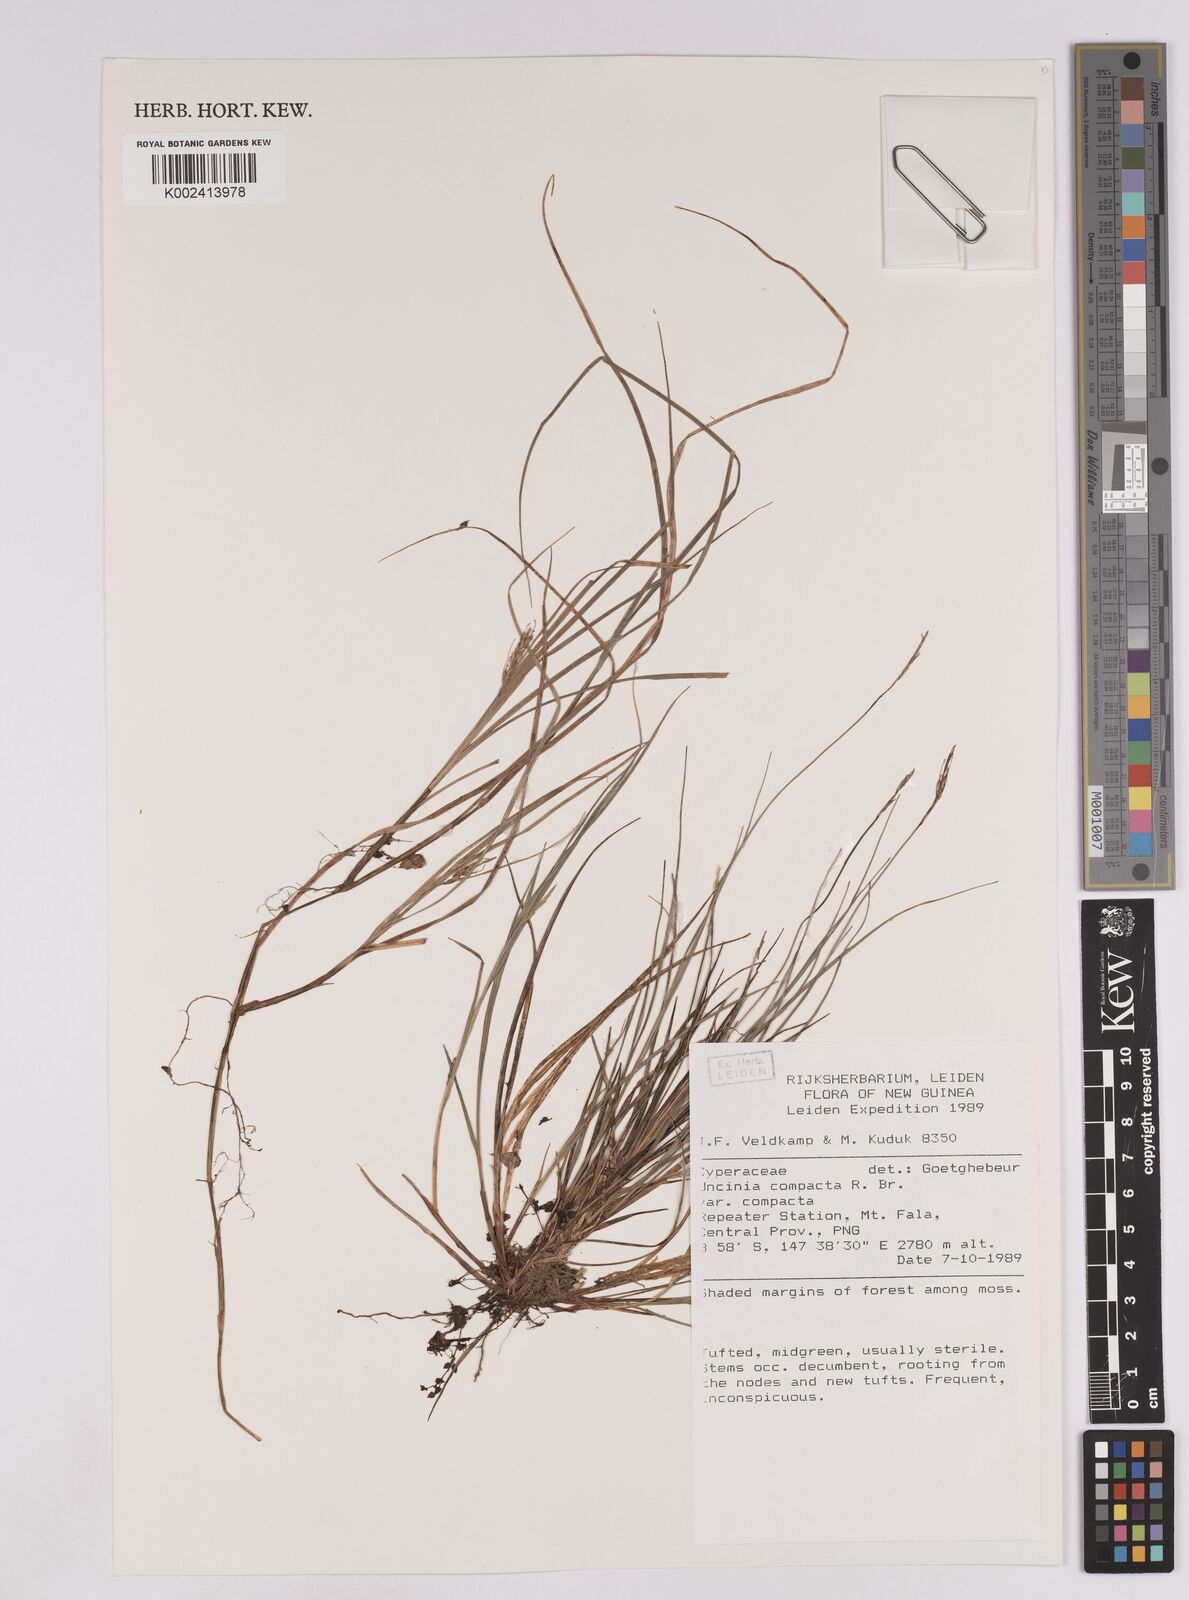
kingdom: Plantae
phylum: Tracheophyta
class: Liliopsida
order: Poales
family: Cyperaceae
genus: Carex
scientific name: Carex austrocompacta
